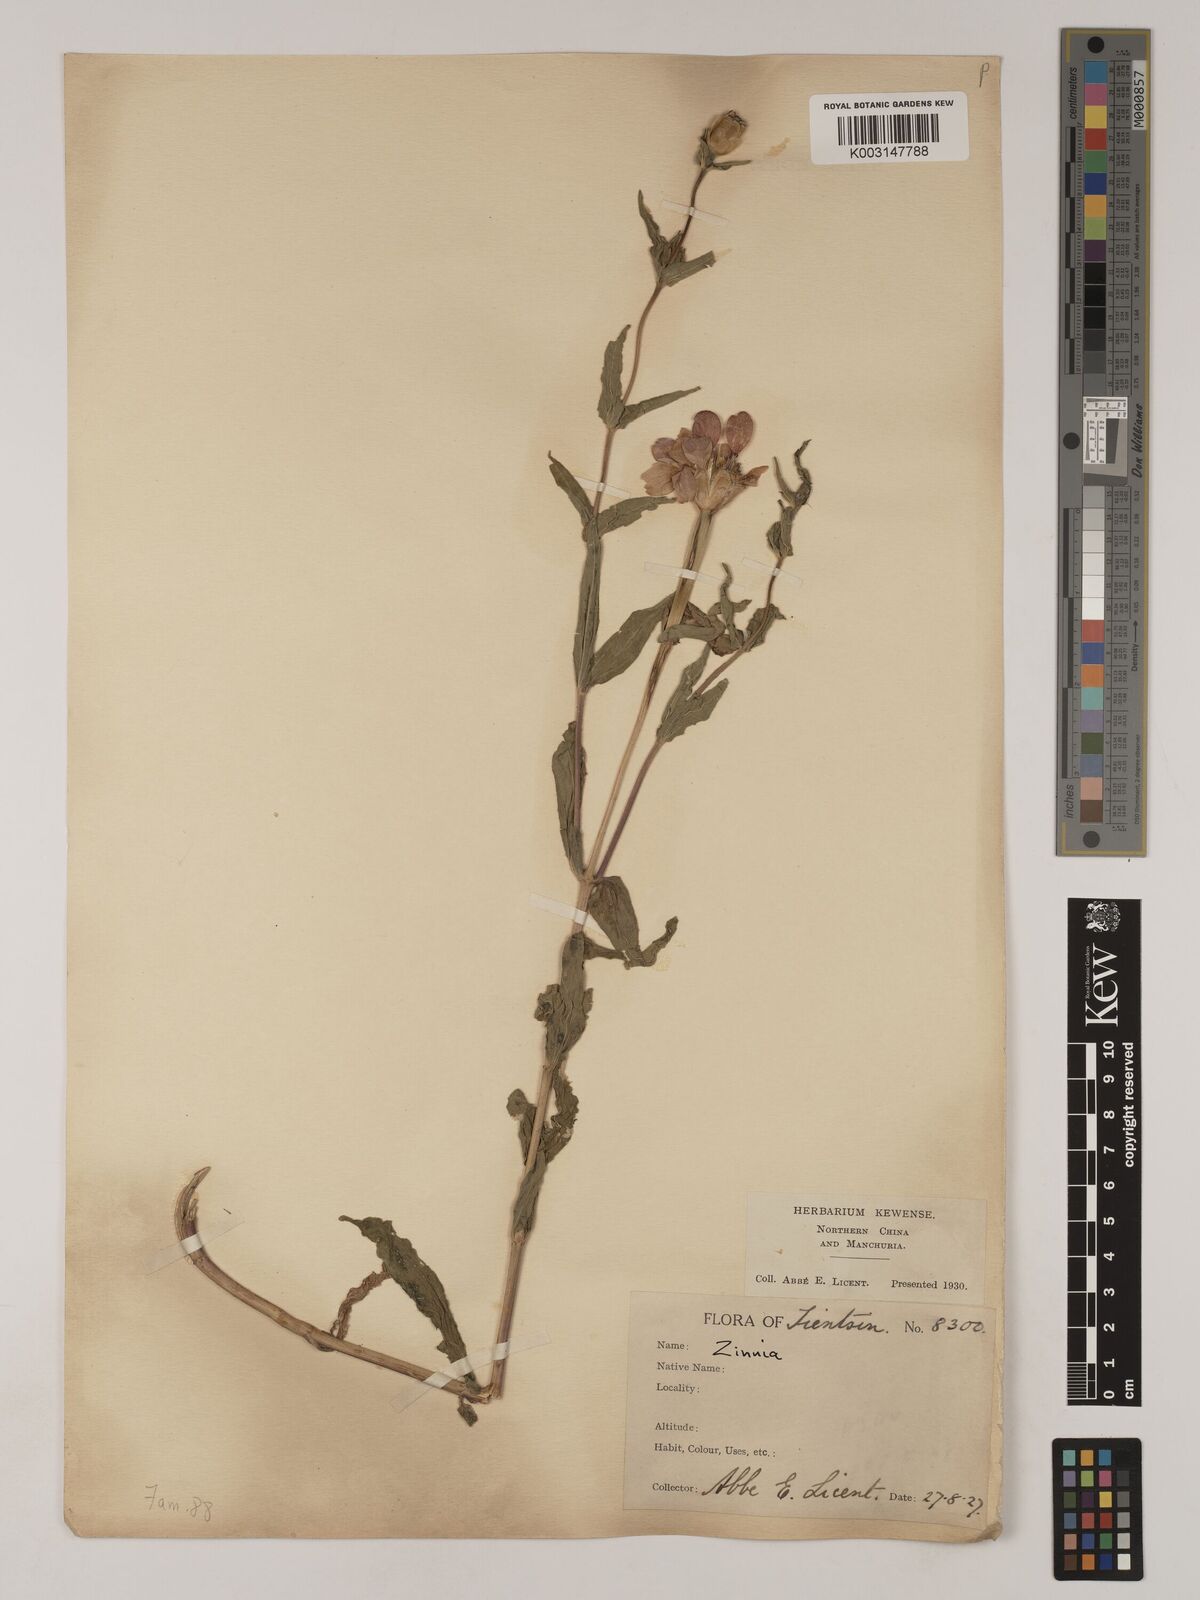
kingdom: Plantae
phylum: Tracheophyta
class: Magnoliopsida
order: Asterales
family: Asteraceae
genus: Zinnia
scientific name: Zinnia peruviana
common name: Peruvian zinnia
